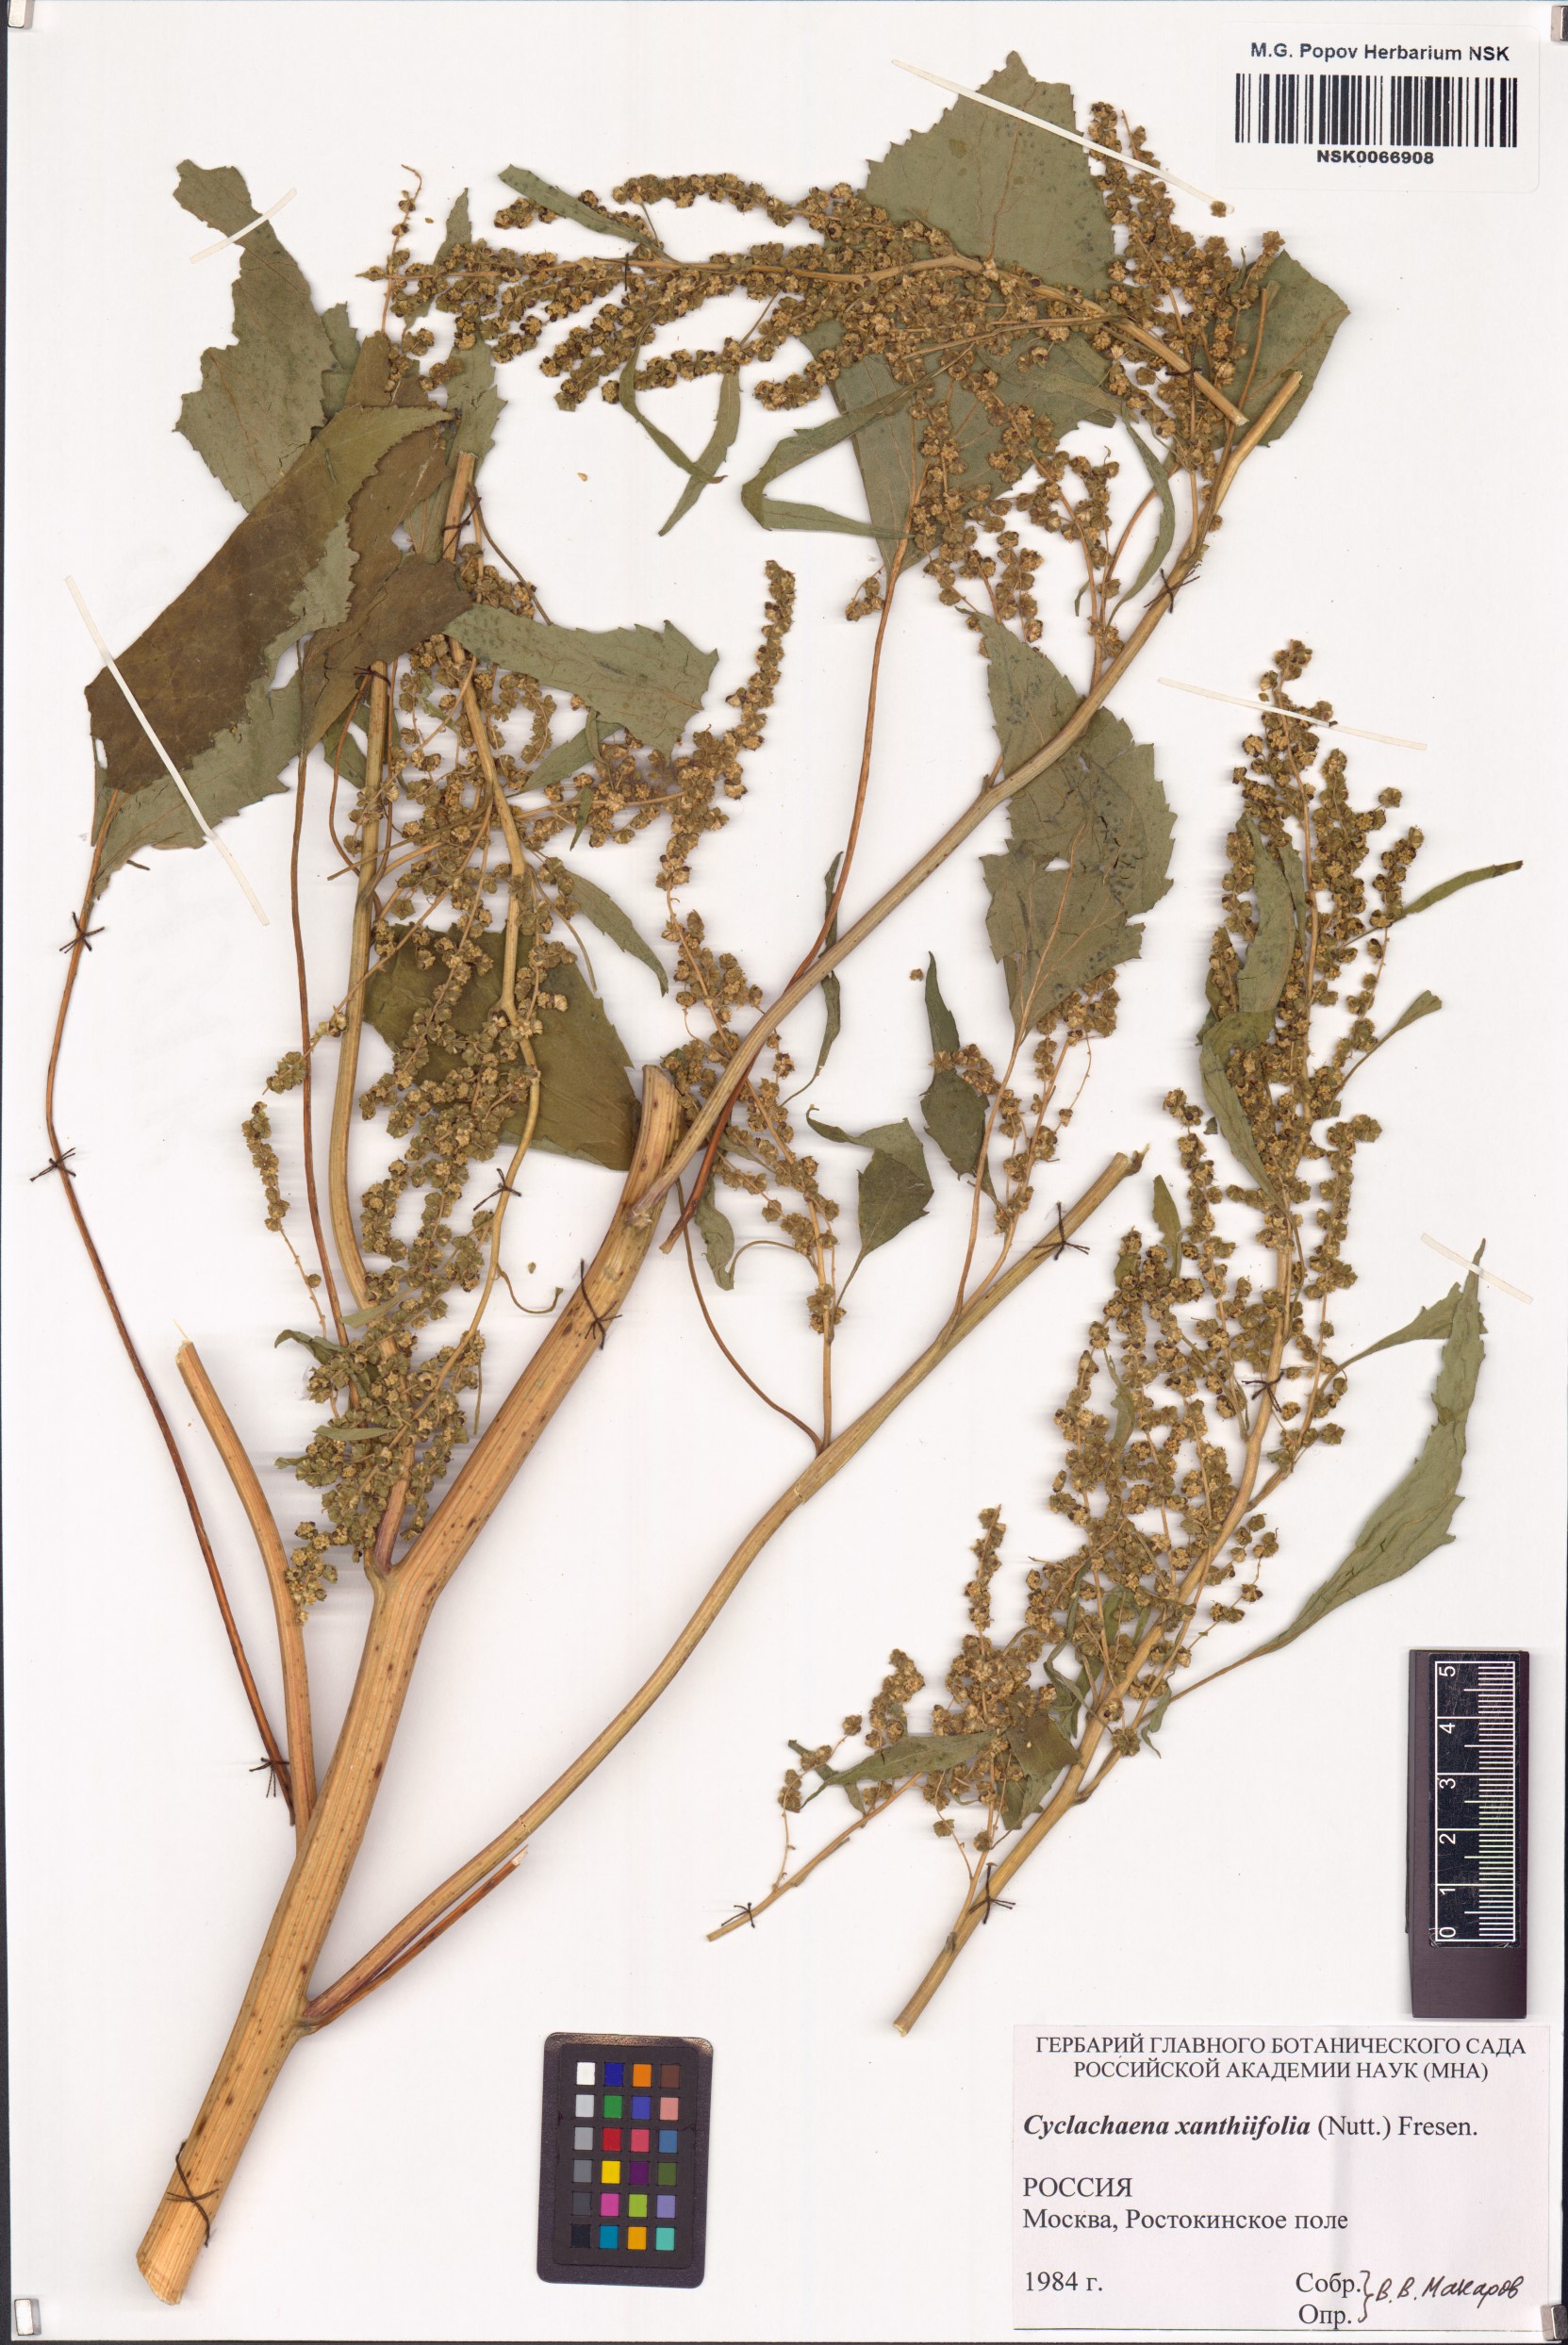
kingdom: Plantae
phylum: Tracheophyta
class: Magnoliopsida
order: Asterales
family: Asteraceae
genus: Cyclachaena
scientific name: Cyclachaena xanthiifolia
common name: Giant sumpweed
